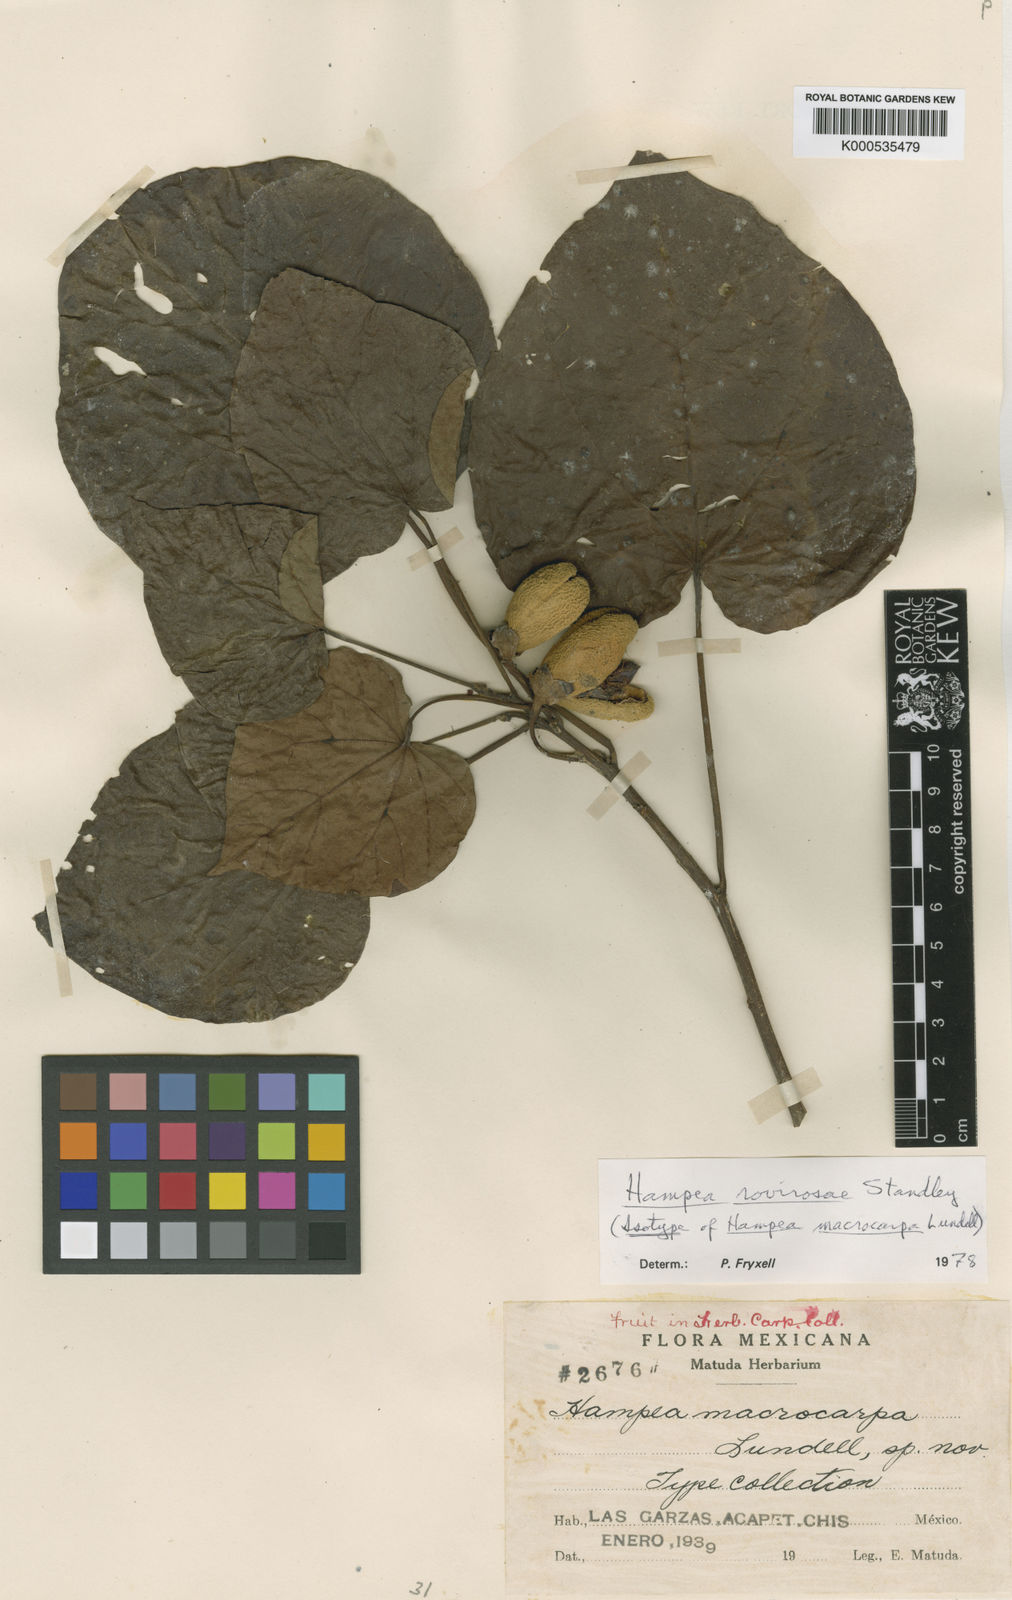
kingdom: Plantae
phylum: Tracheophyta
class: Magnoliopsida
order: Malvales
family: Malvaceae
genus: Hampea
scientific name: Hampea rovirosae
